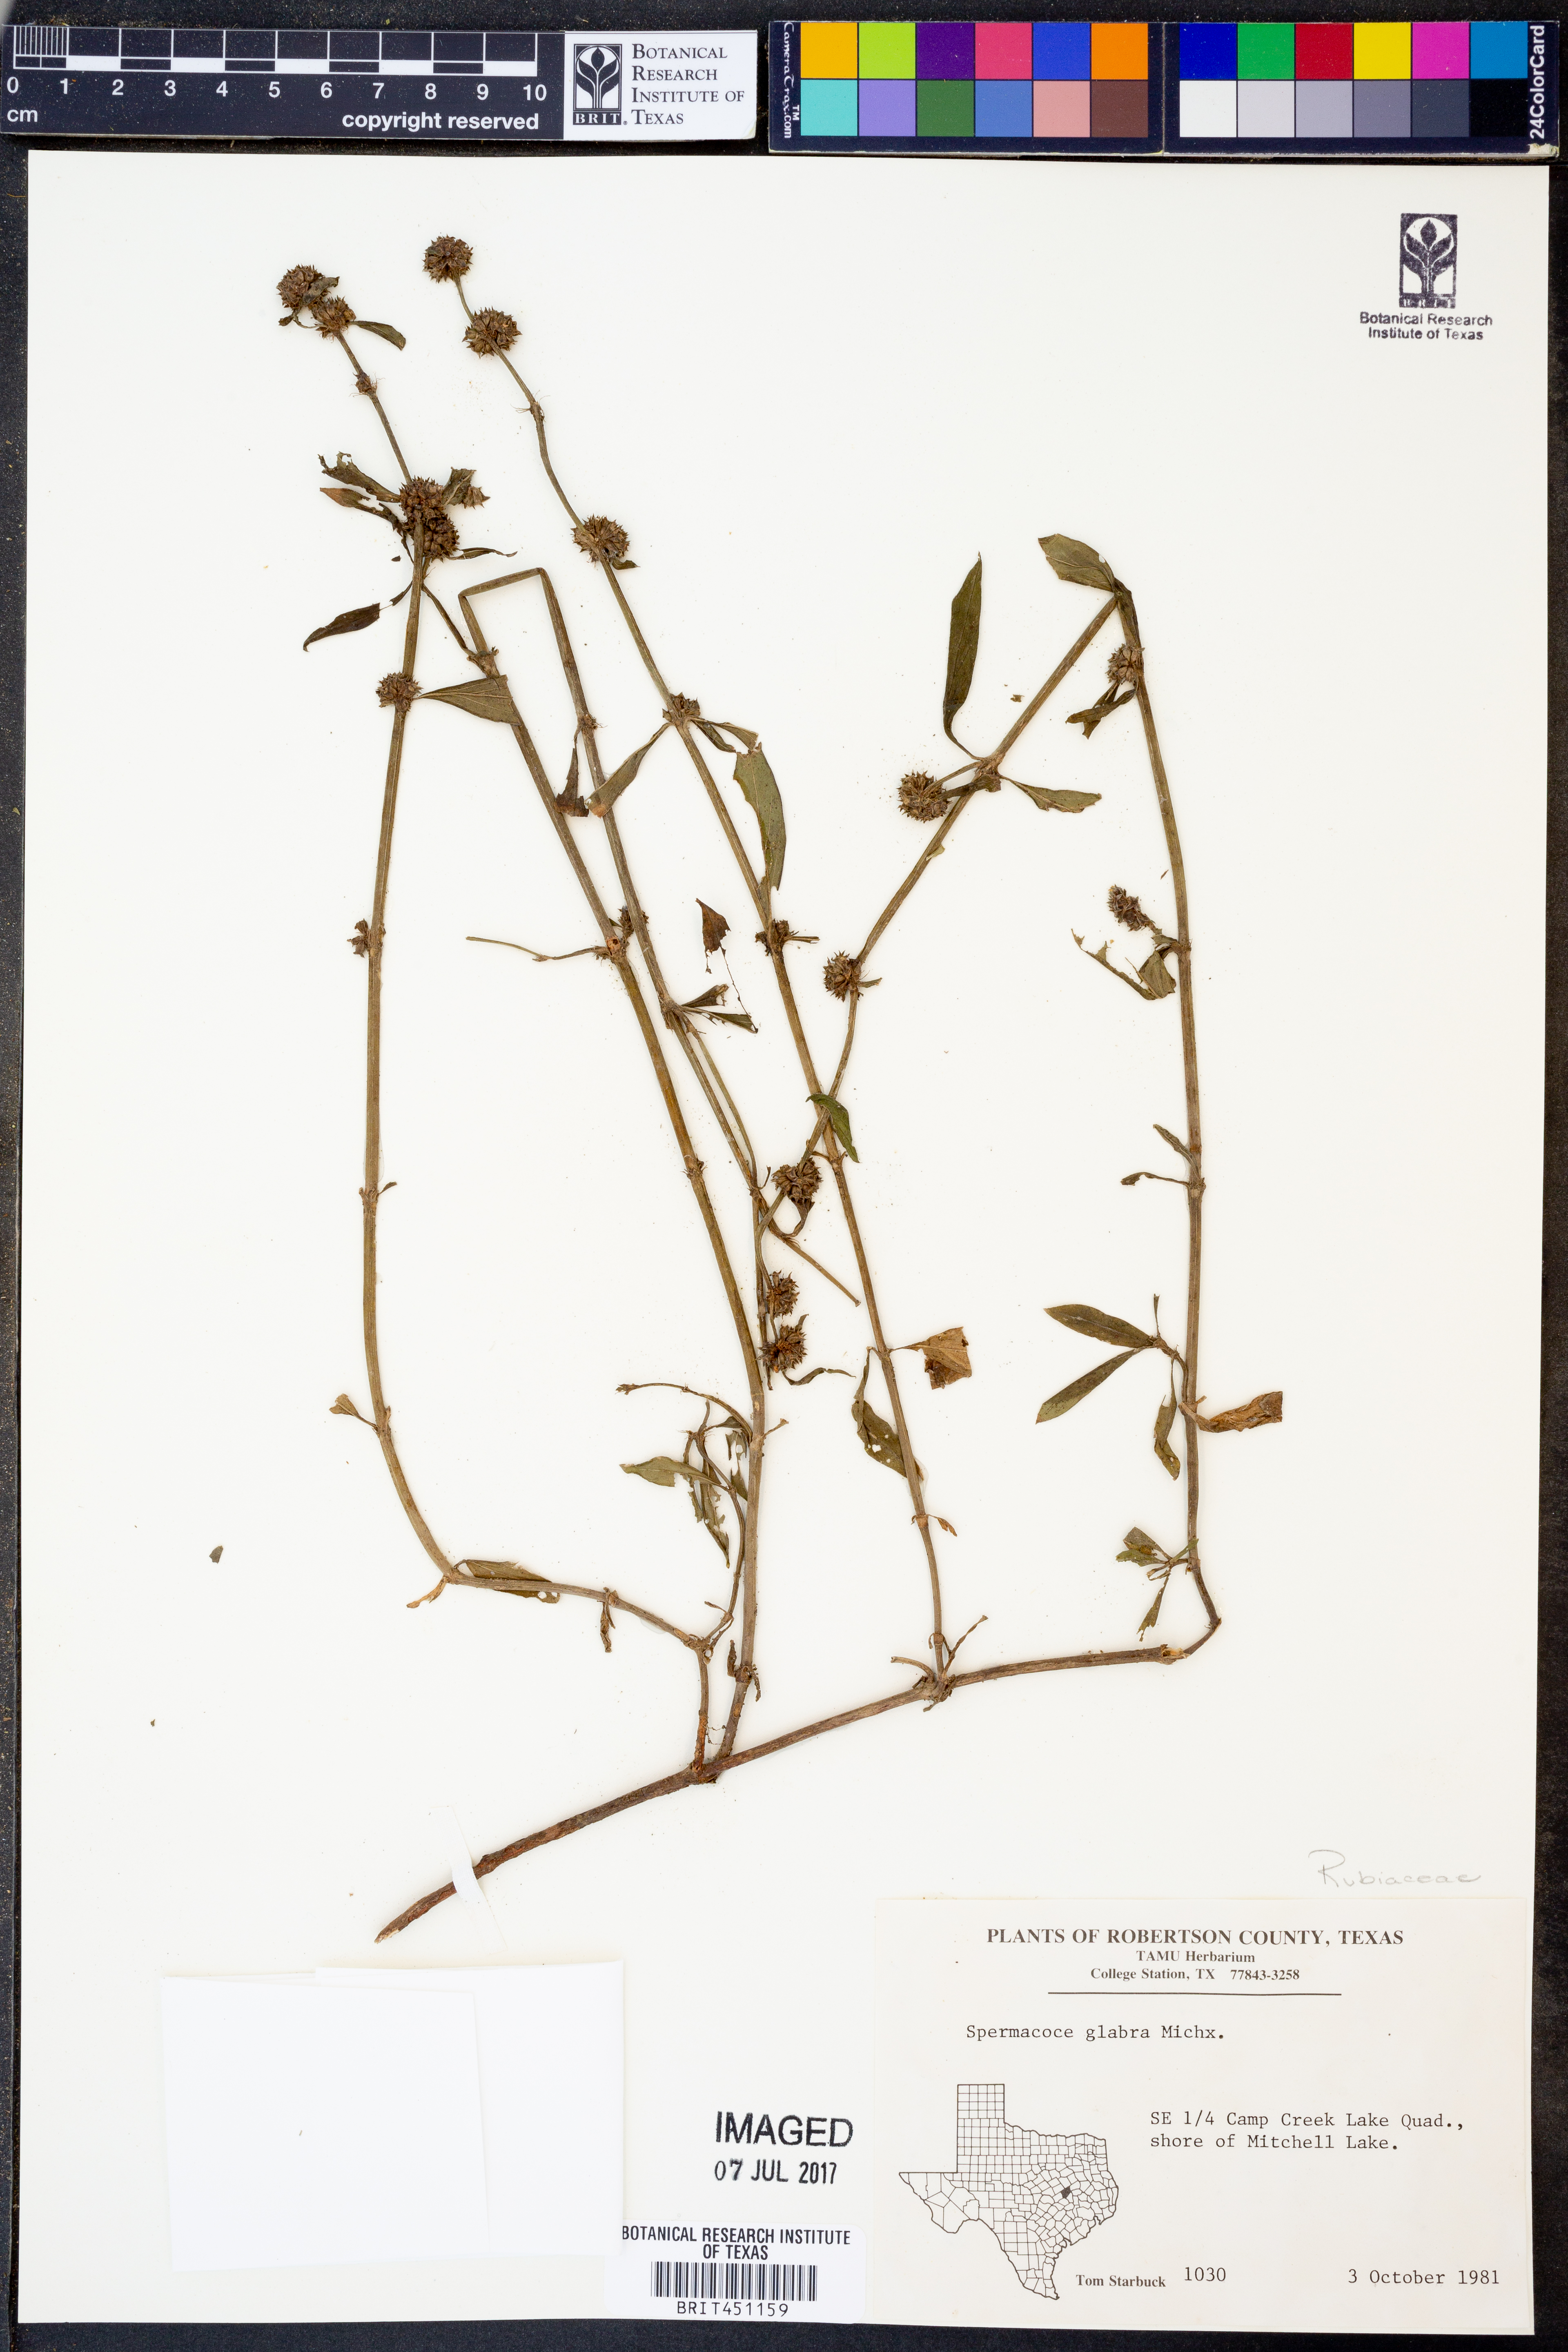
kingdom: Plantae
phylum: Tracheophyta
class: Magnoliopsida
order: Gentianales
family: Rubiaceae
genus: Spermacoce
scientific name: Spermacoce glabra
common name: Smooth buttonweed
